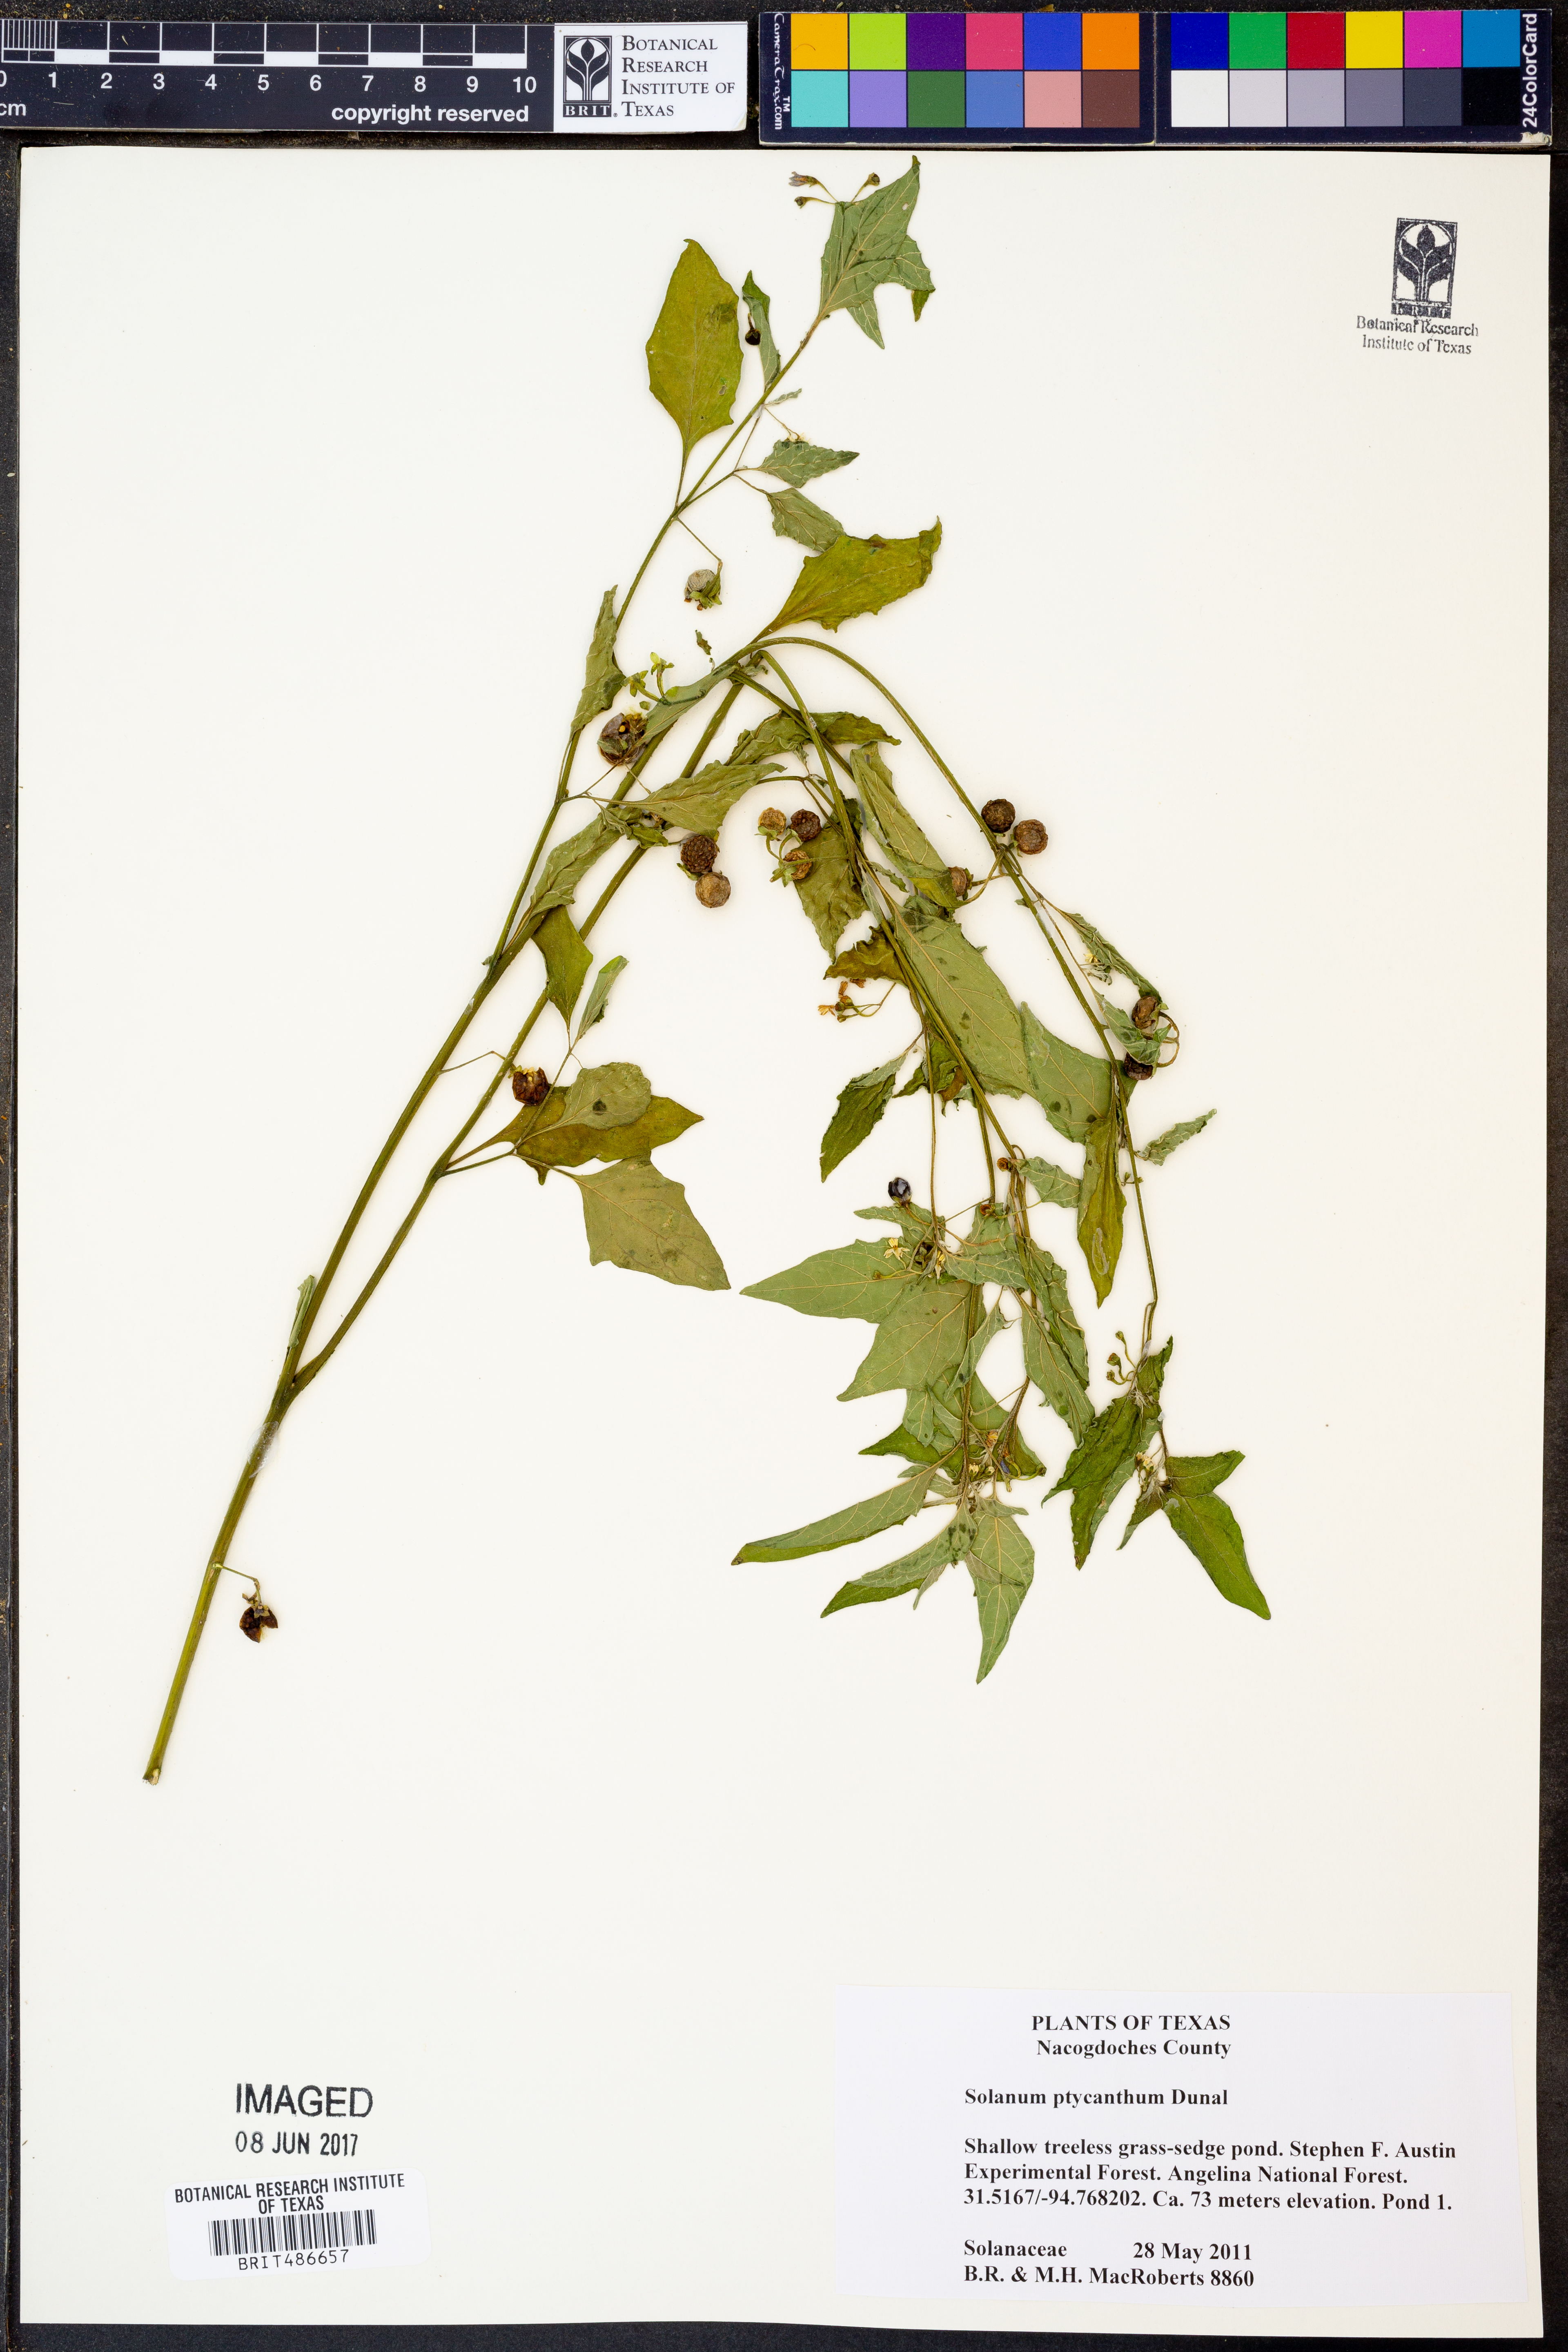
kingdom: Plantae
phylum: Tracheophyta
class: Magnoliopsida
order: Solanales
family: Solanaceae
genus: Solanum
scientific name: Solanum americanum
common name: American black nightshade
